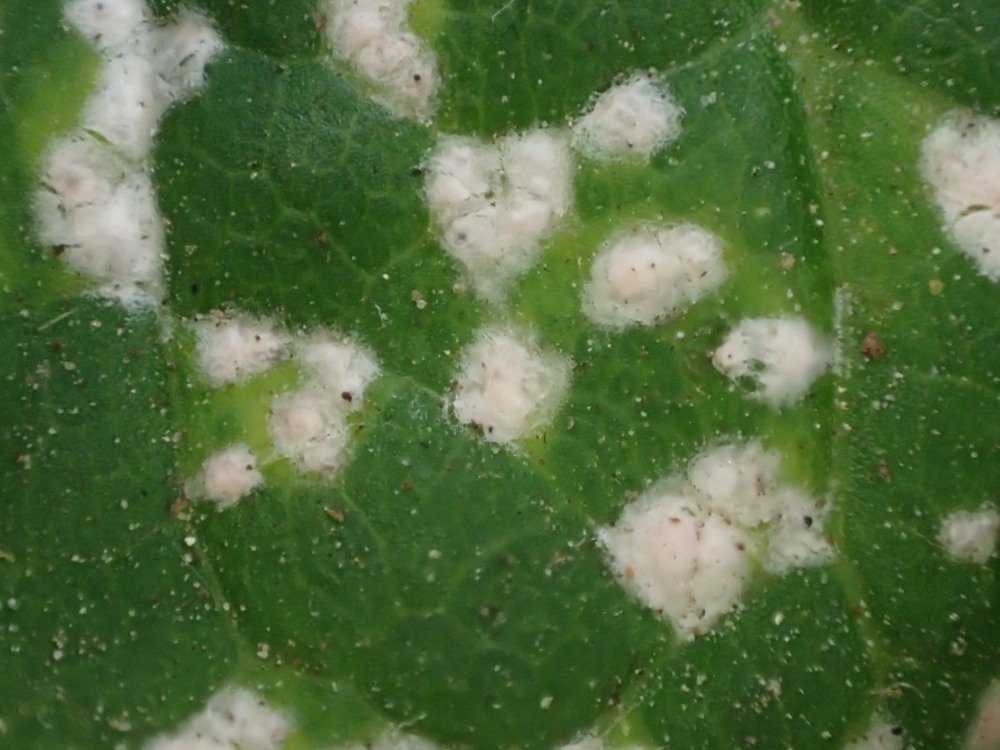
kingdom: Fungi
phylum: Ascomycota
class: Dothideomycetes
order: Mycosphaerellales
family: Mycosphaerellaceae
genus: Mycosphaerella
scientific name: Mycosphaerella podagrariae
